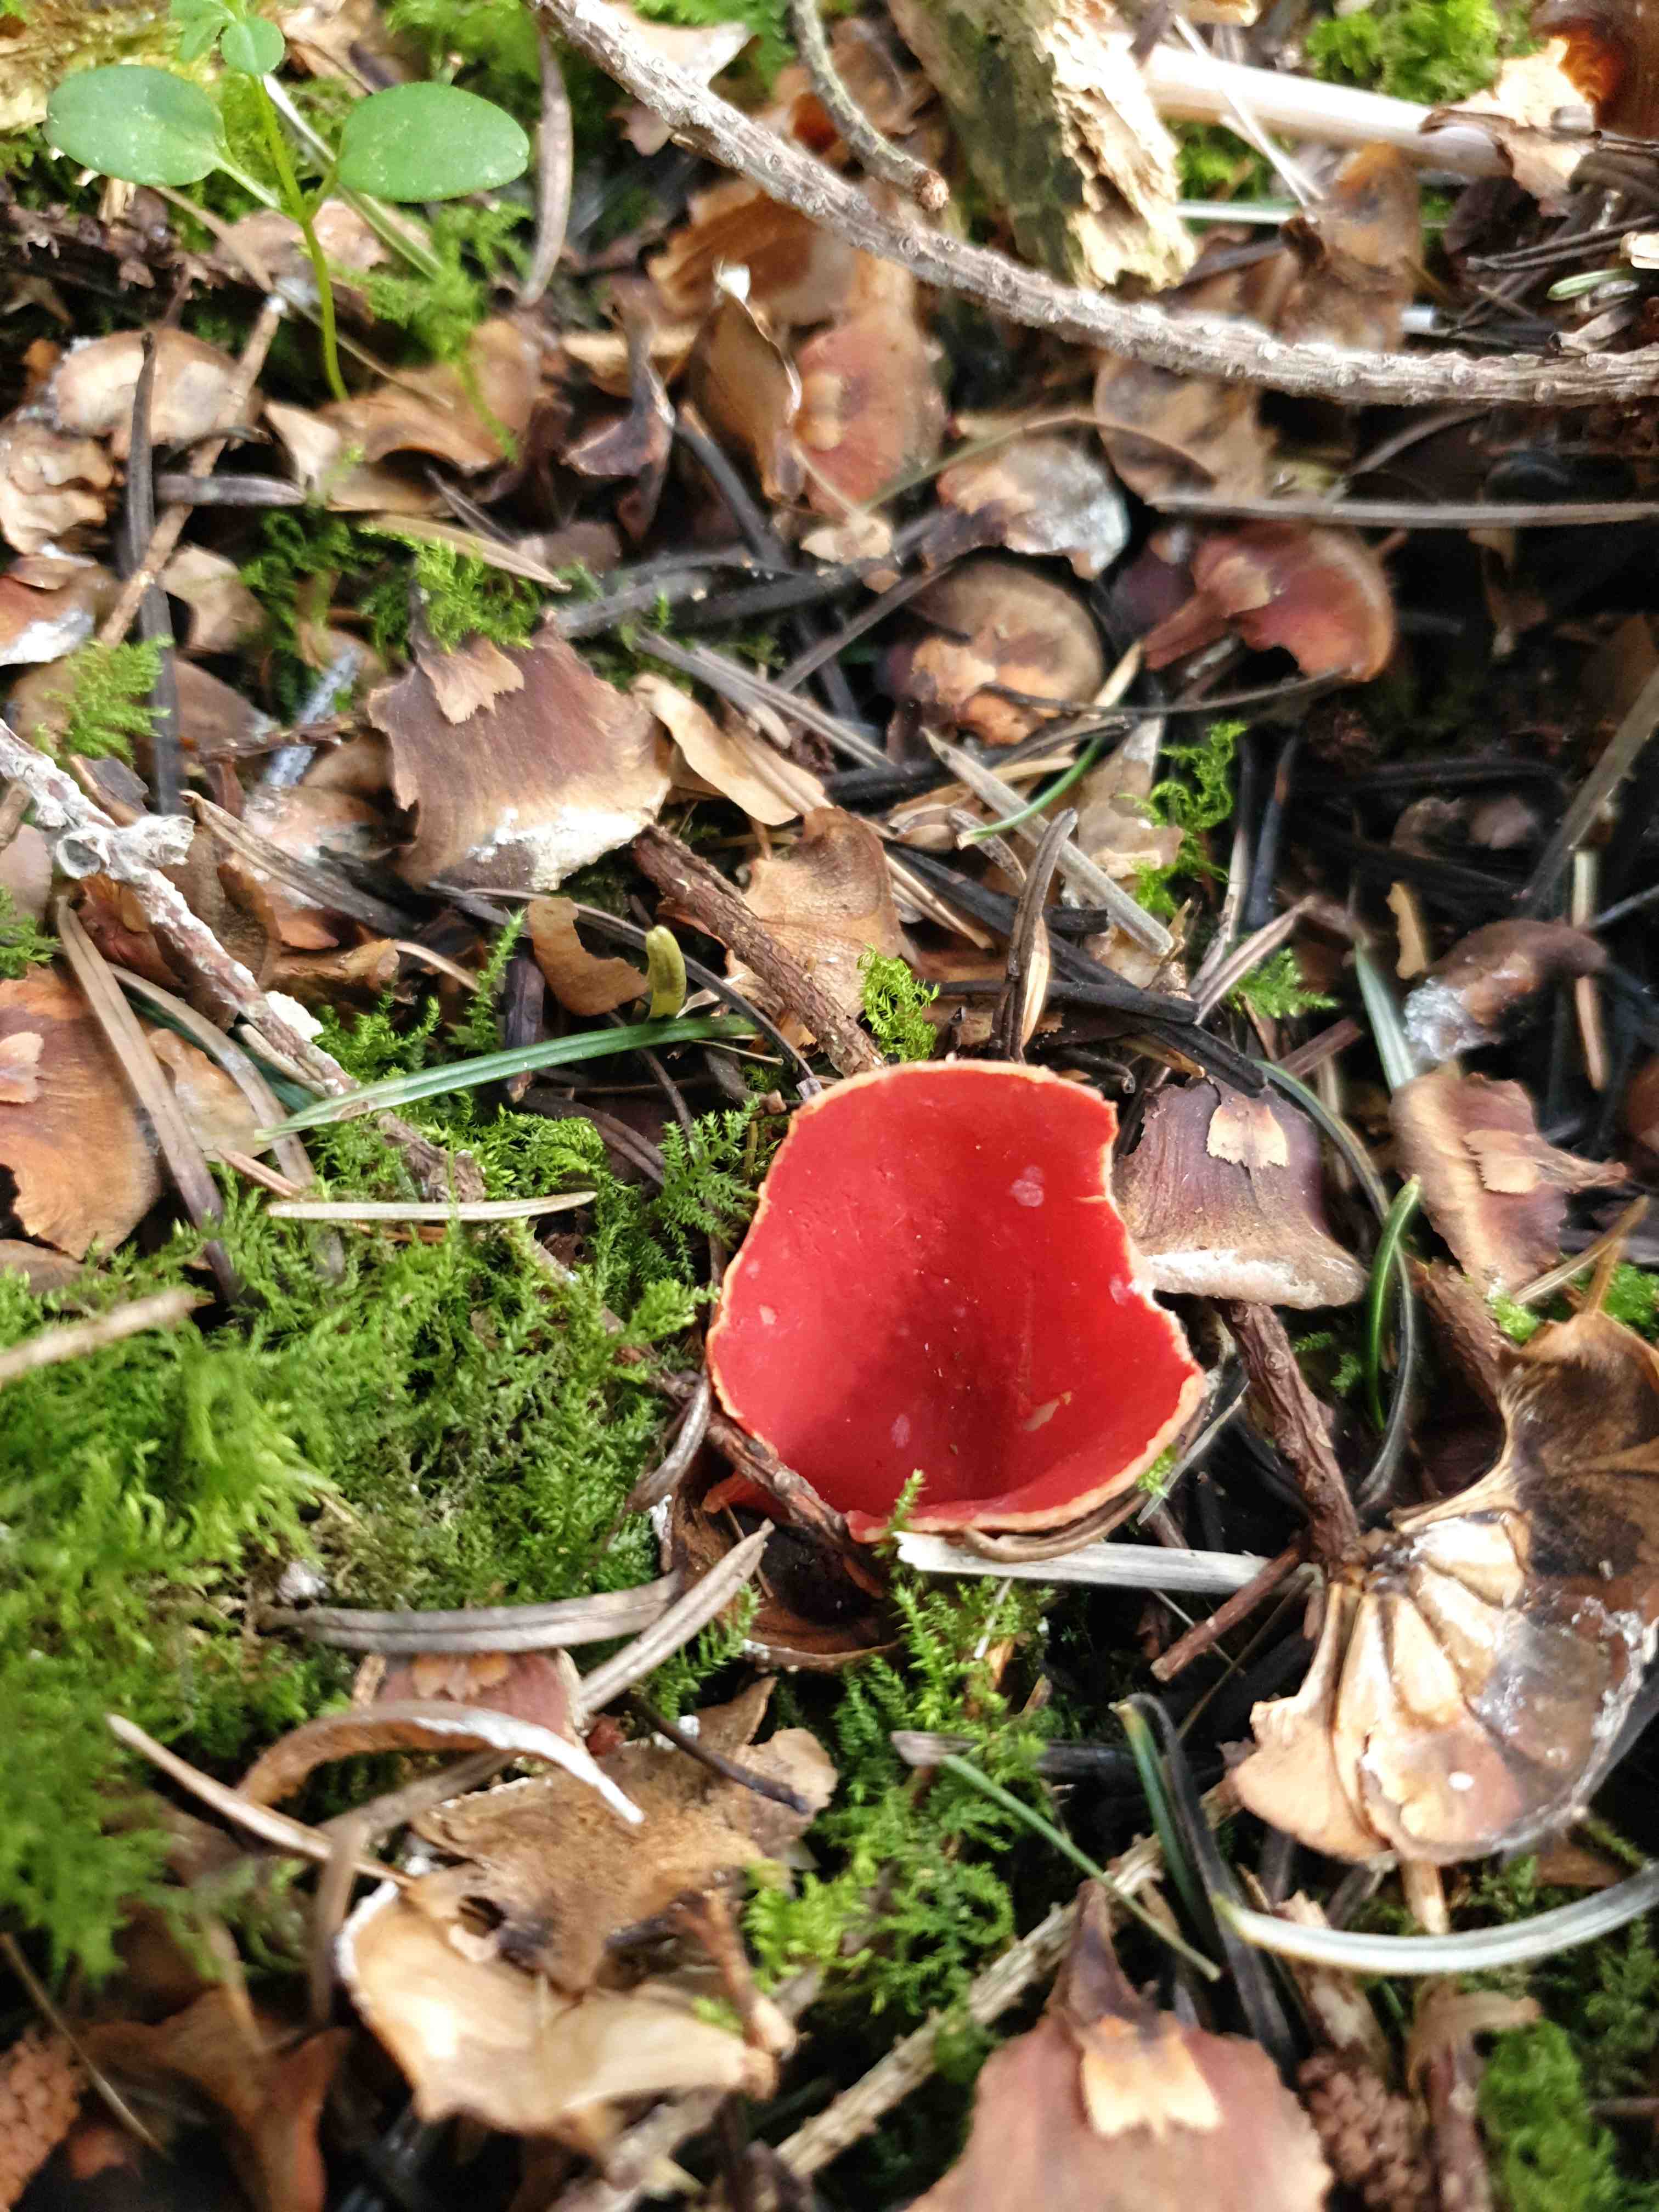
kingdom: Fungi
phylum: Ascomycota
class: Pezizomycetes
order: Pezizales
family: Sarcoscyphaceae
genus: Sarcoscypha
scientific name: Sarcoscypha austriaca
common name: krølhåret pragtbæger
